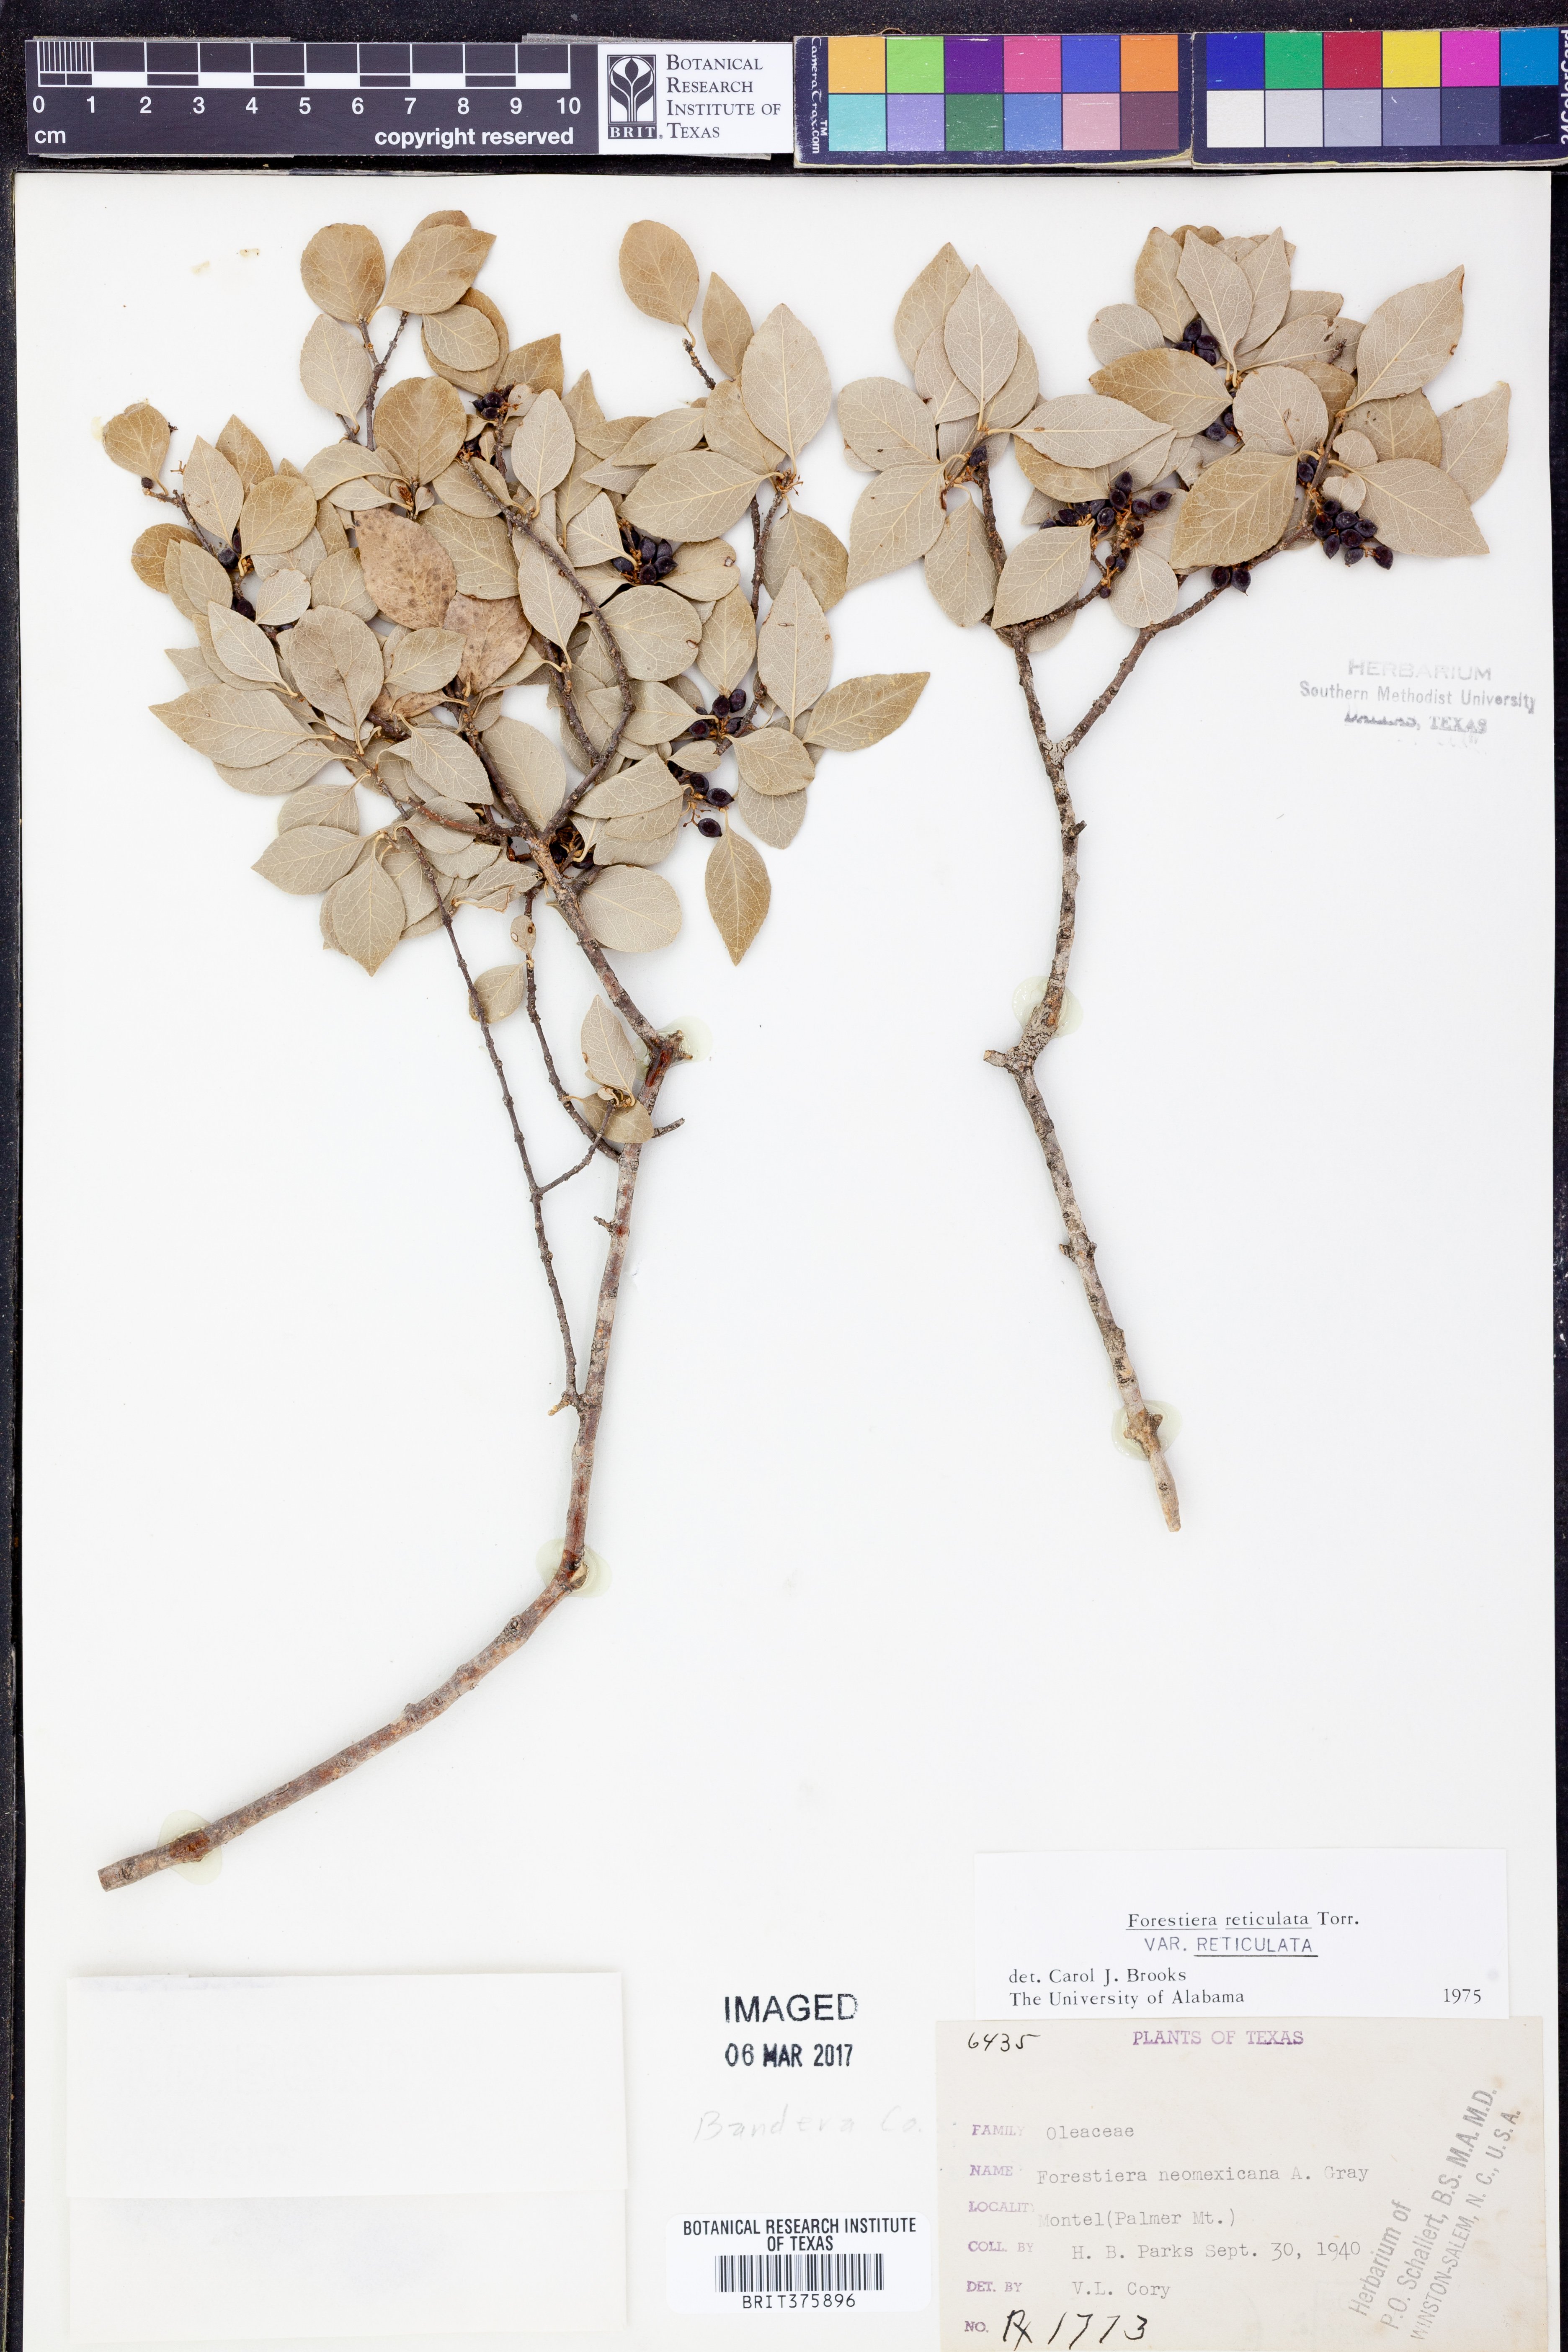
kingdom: Plantae
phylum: Tracheophyta
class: Magnoliopsida
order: Lamiales
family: Oleaceae
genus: Forestiera
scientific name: Forestiera reticulata
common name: Netleaf swamp-privet
